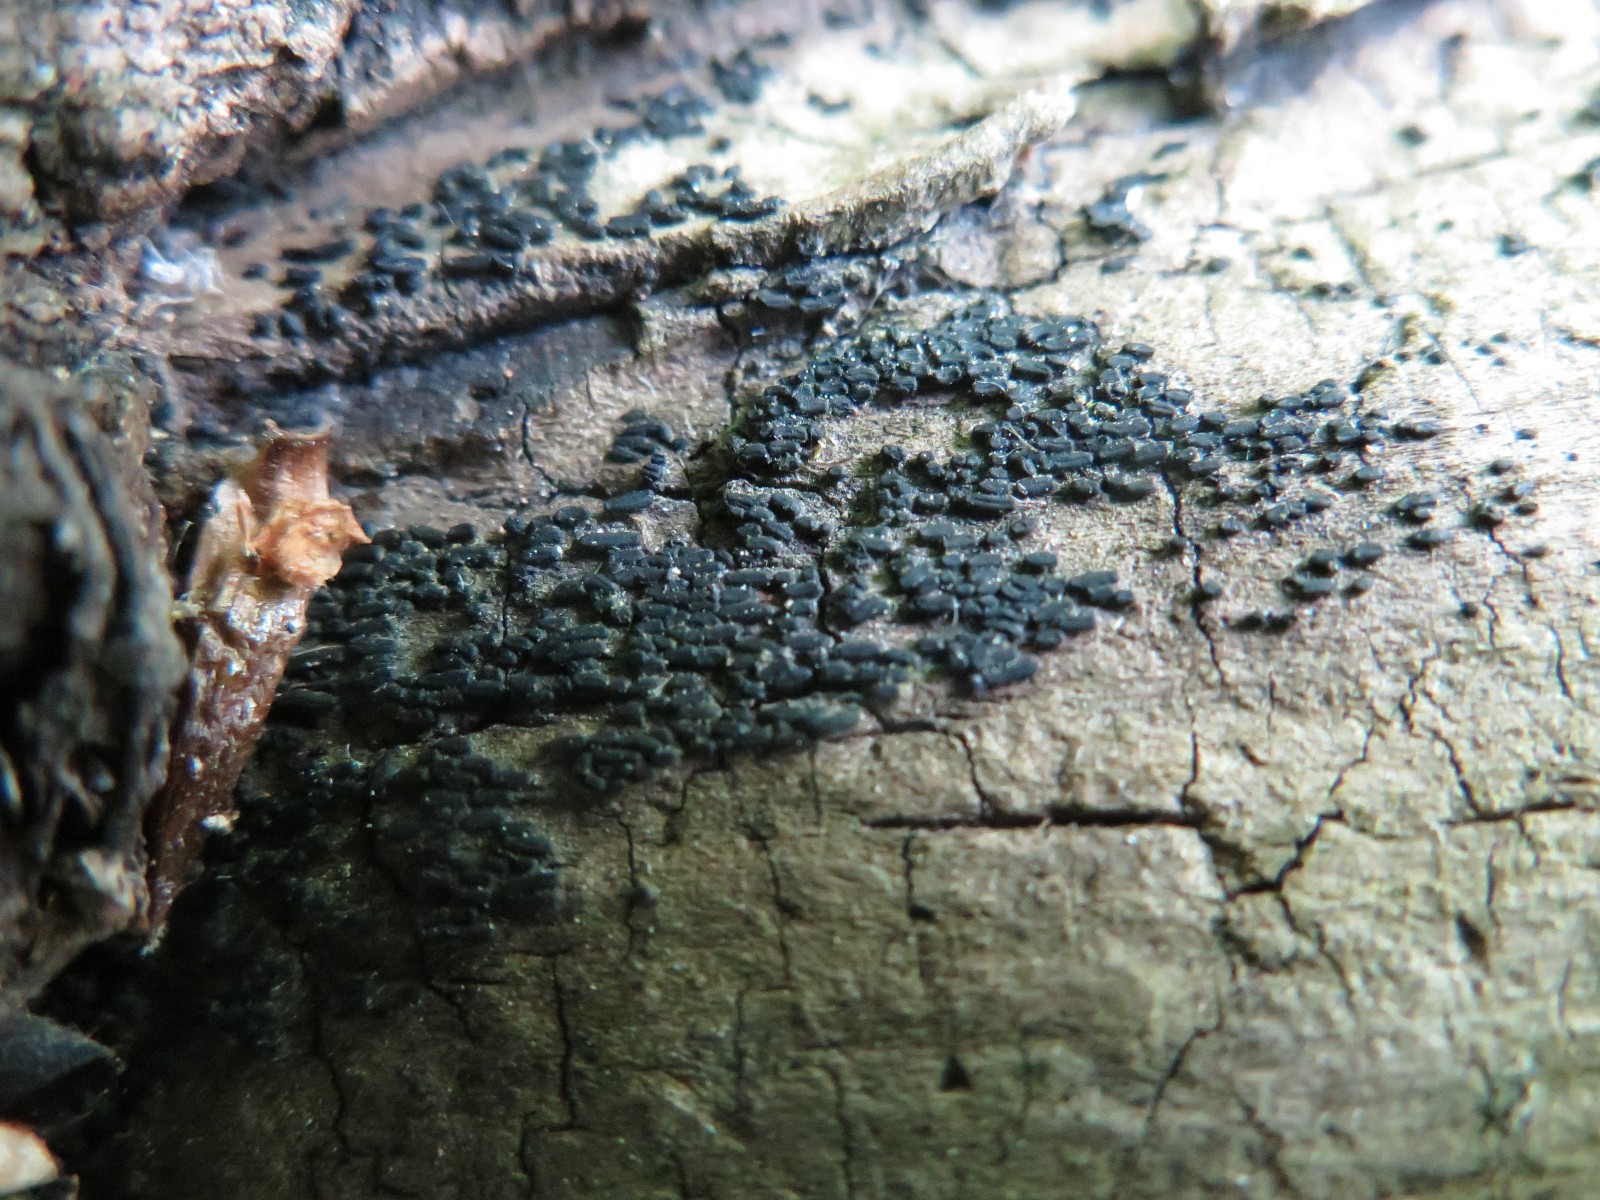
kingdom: Fungi
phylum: Ascomycota
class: Dothideomycetes
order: Hysteriales
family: Hysteriaceae
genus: Hysterium
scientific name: Hysterium pulicare
